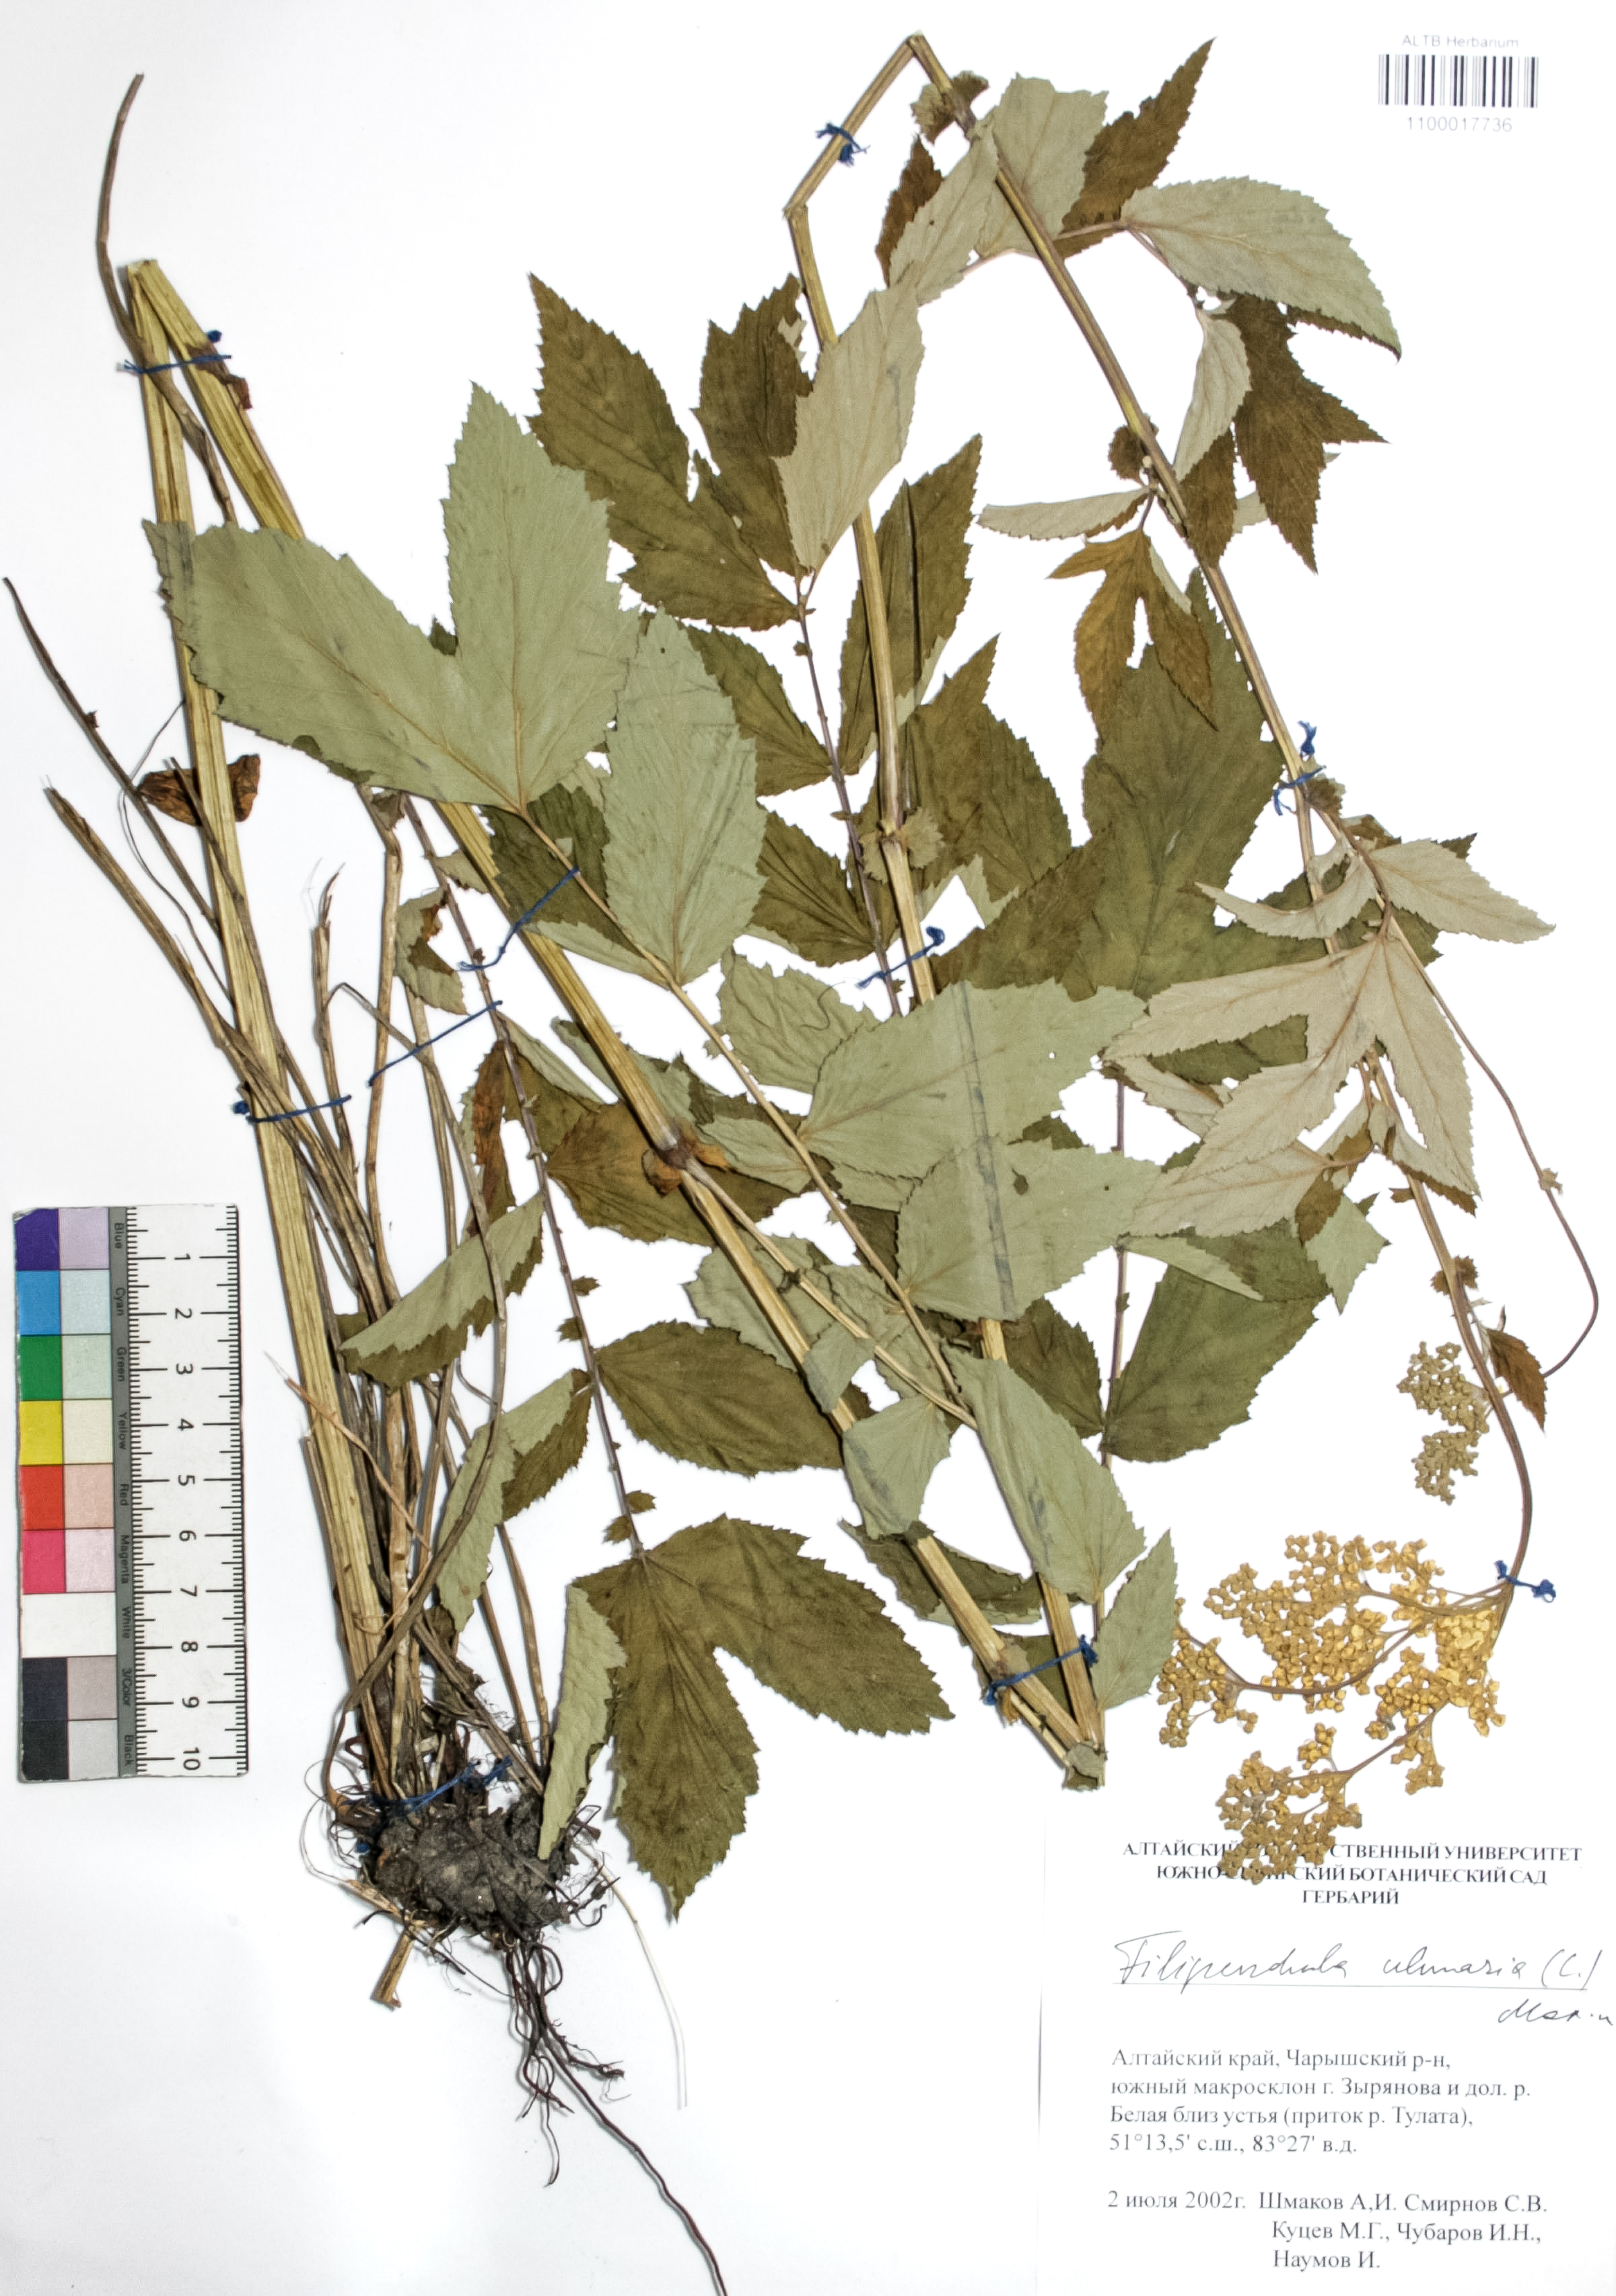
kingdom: Plantae
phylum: Tracheophyta
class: Magnoliopsida
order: Rosales
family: Rosaceae
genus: Filipendula
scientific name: Filipendula ulmaria
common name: Meadowsweet
